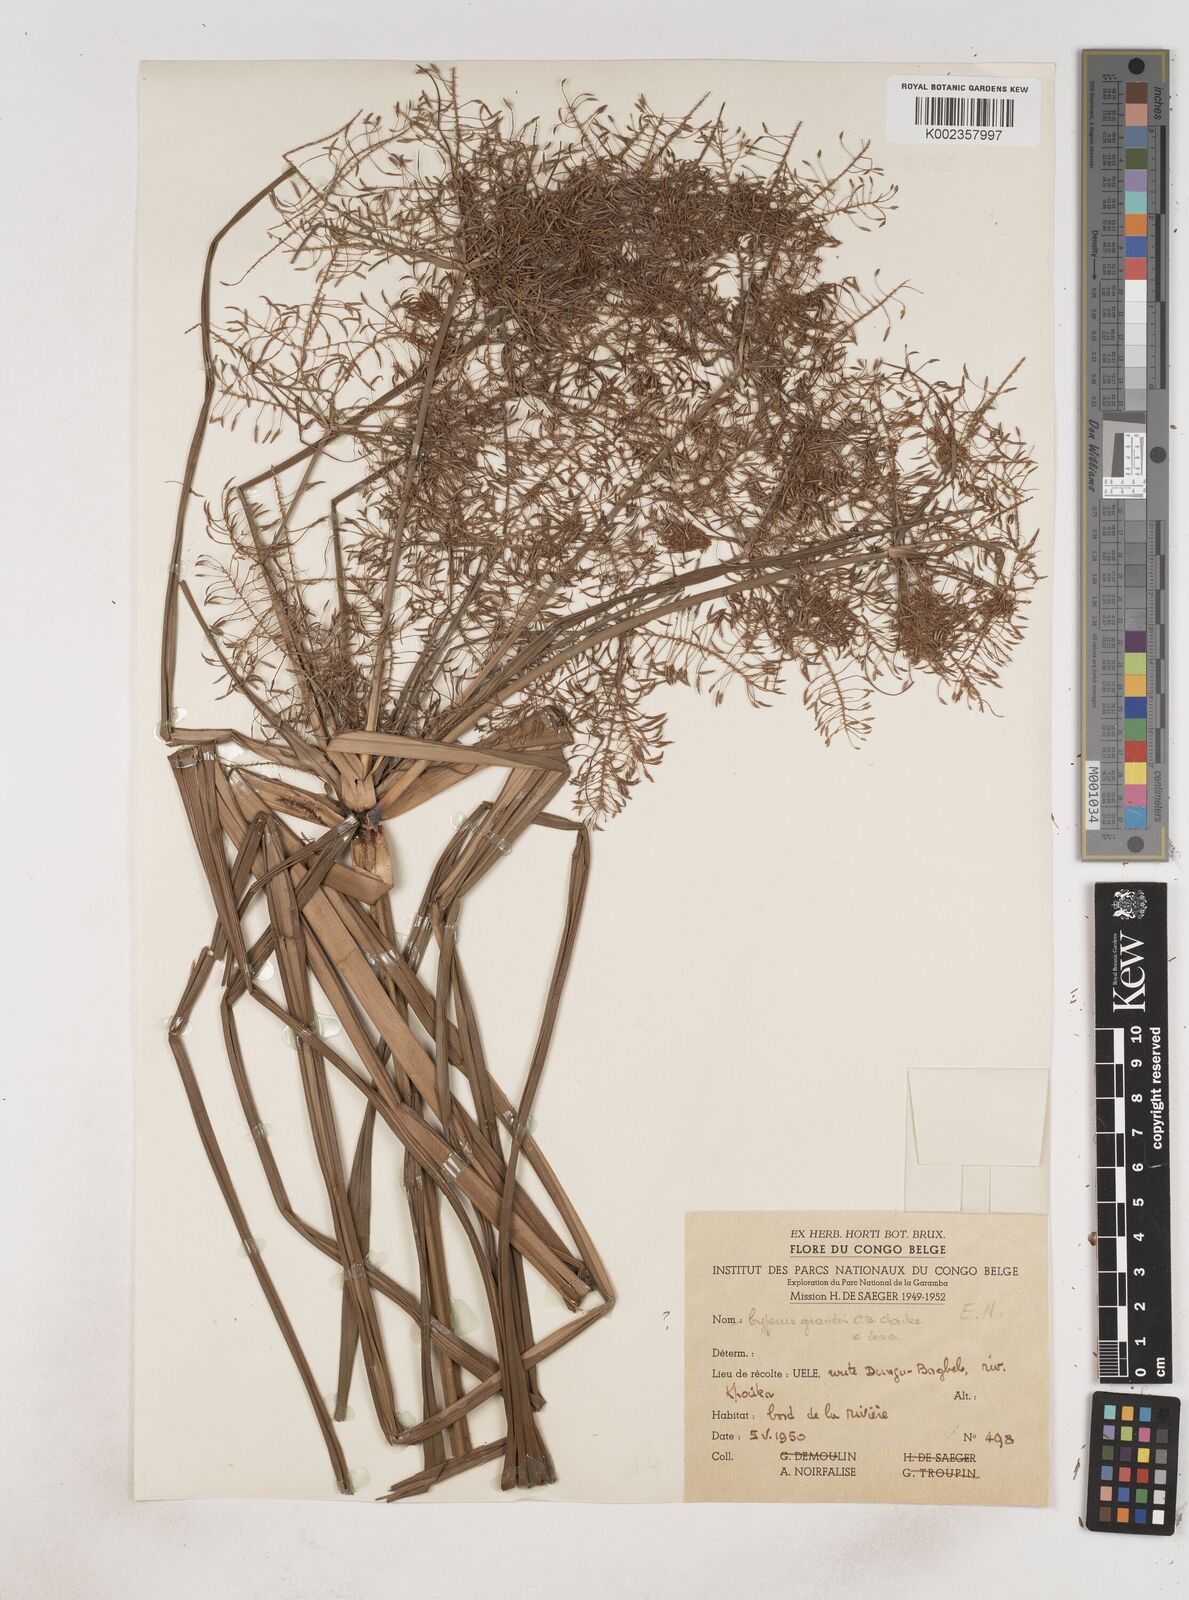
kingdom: Plantae
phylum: Tracheophyta
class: Liliopsida
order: Poales
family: Cyperaceae
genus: Cyperus
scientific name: Cyperus digitatus
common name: Finger flatsedge
